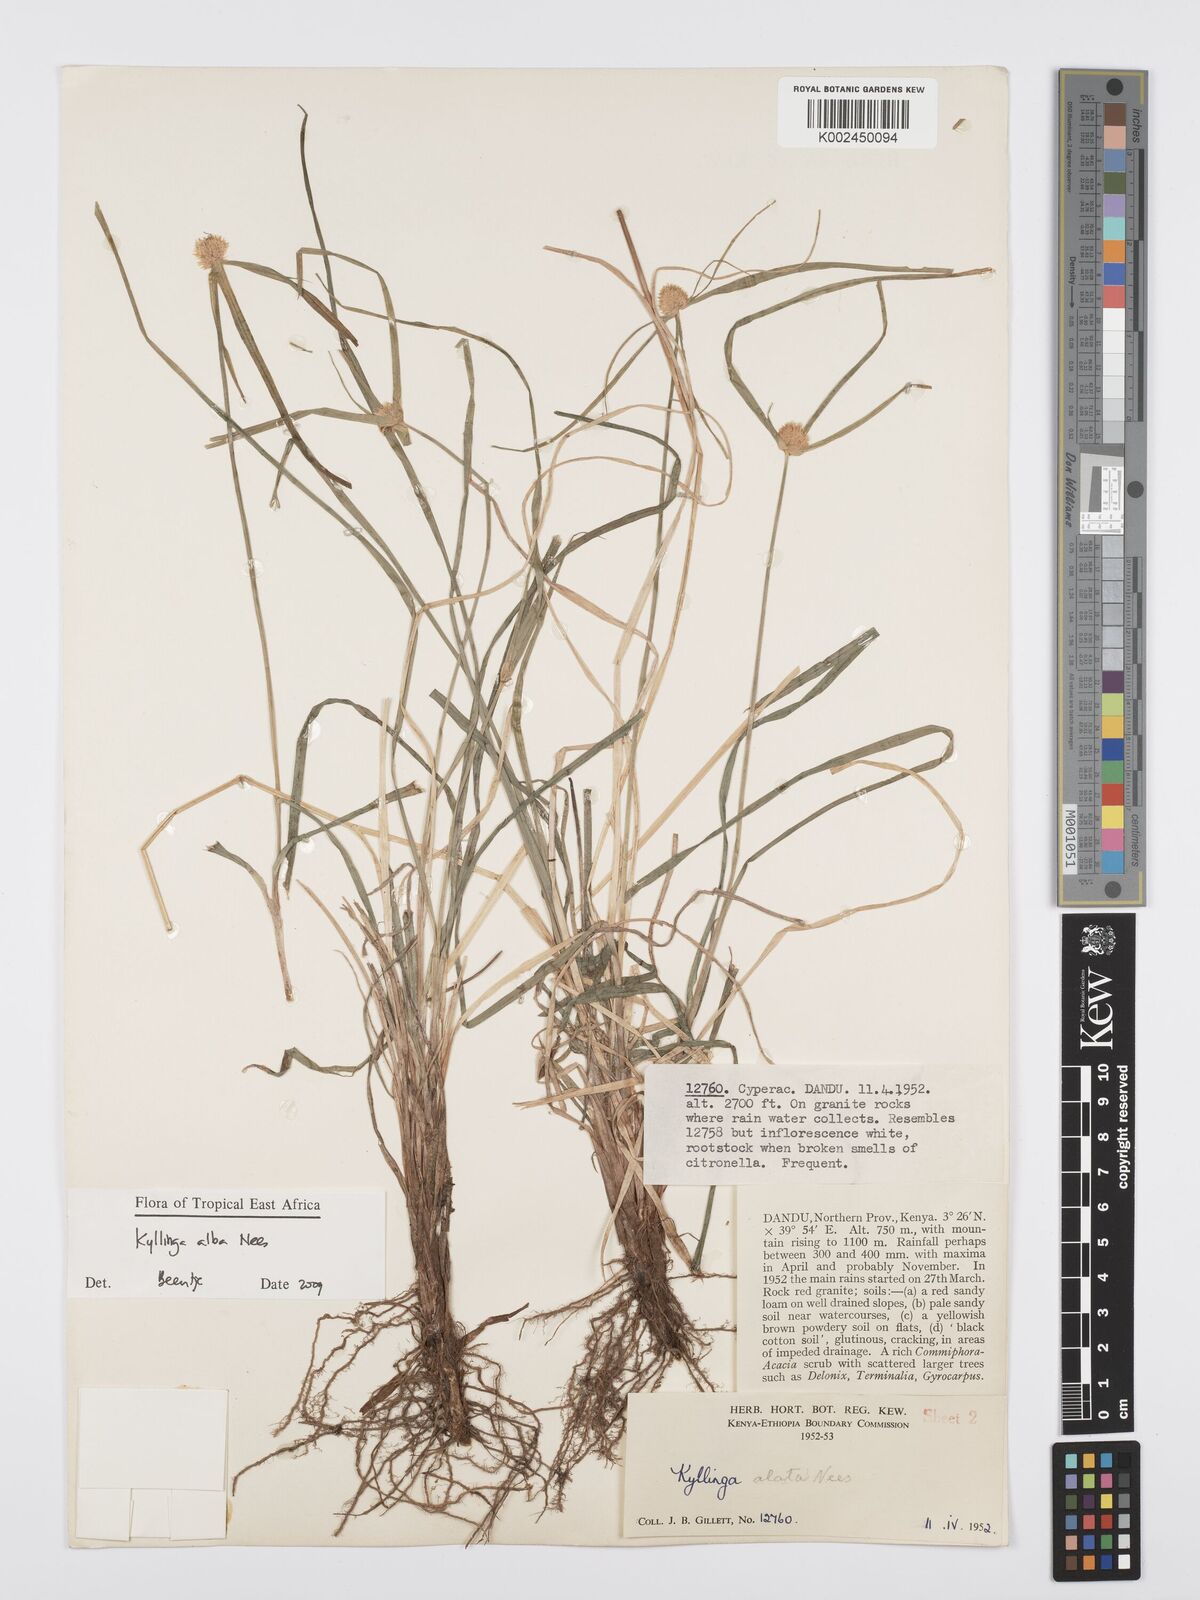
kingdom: Plantae
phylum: Tracheophyta
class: Liliopsida
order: Poales
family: Cyperaceae
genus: Cyperus
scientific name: Cyperus
